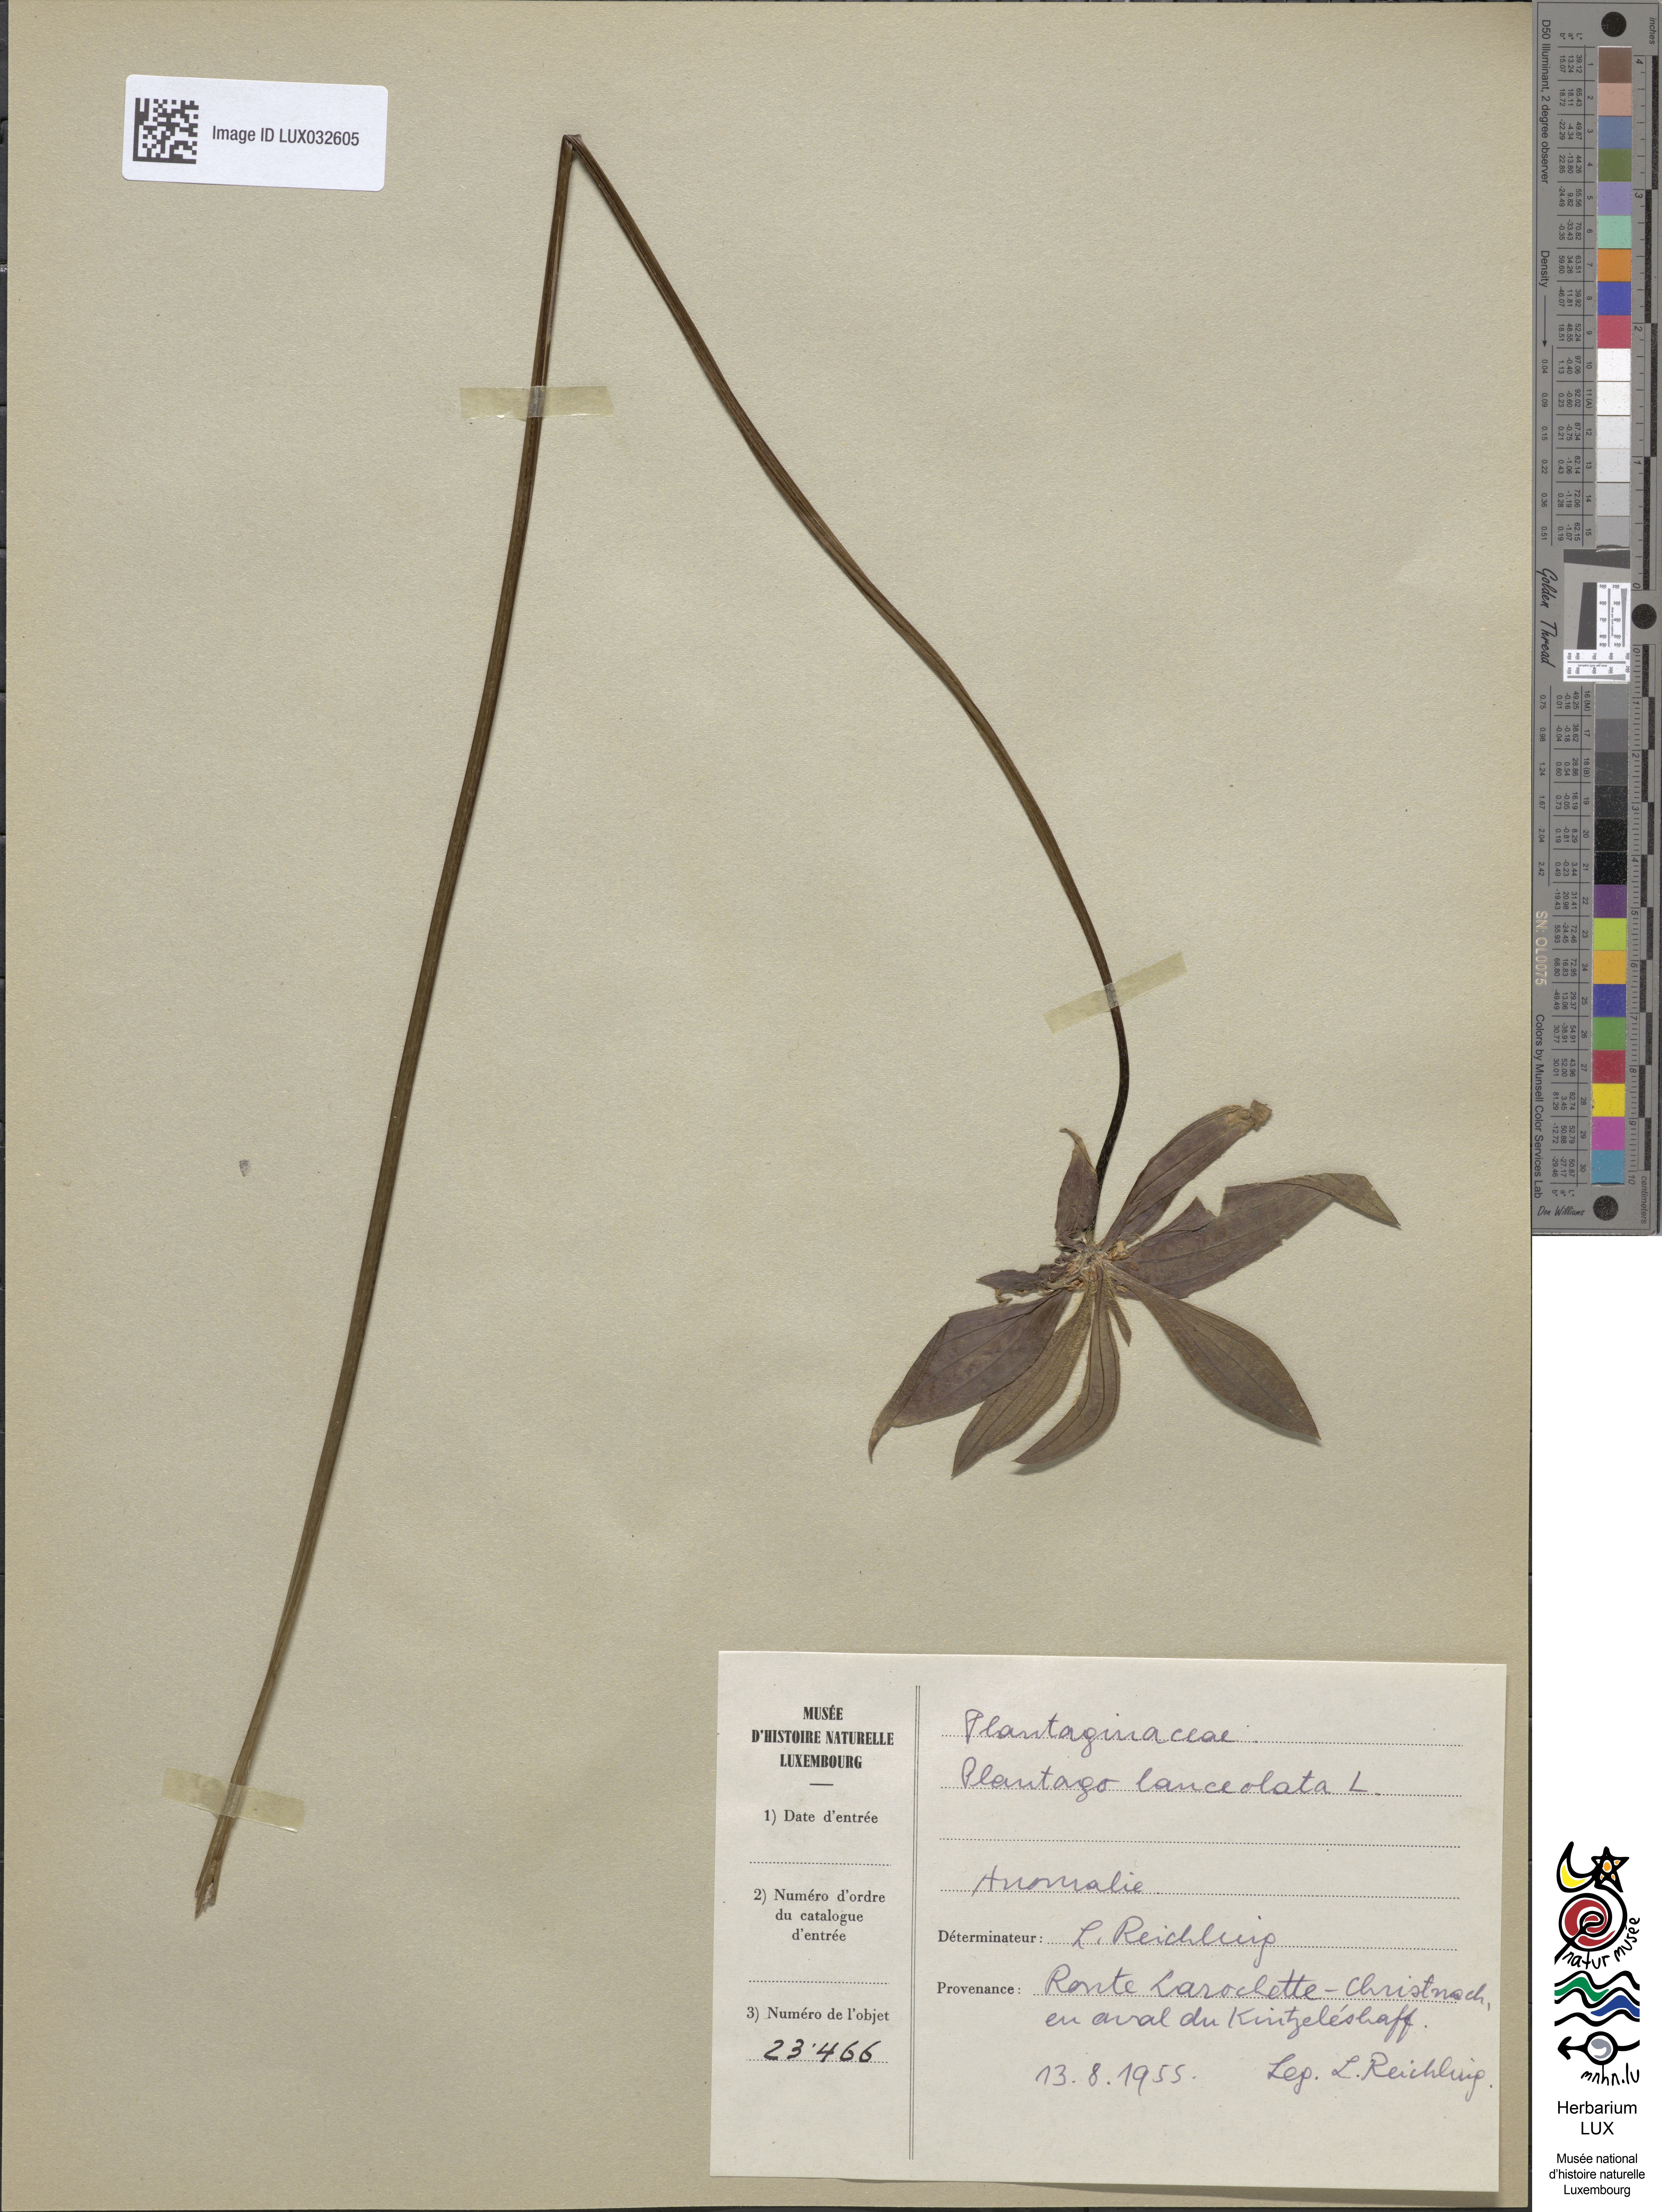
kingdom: Plantae
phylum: Tracheophyta
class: Magnoliopsida
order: Lamiales
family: Plantaginaceae
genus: Plantago
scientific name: Plantago lanceolata
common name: Ribwort plantain
